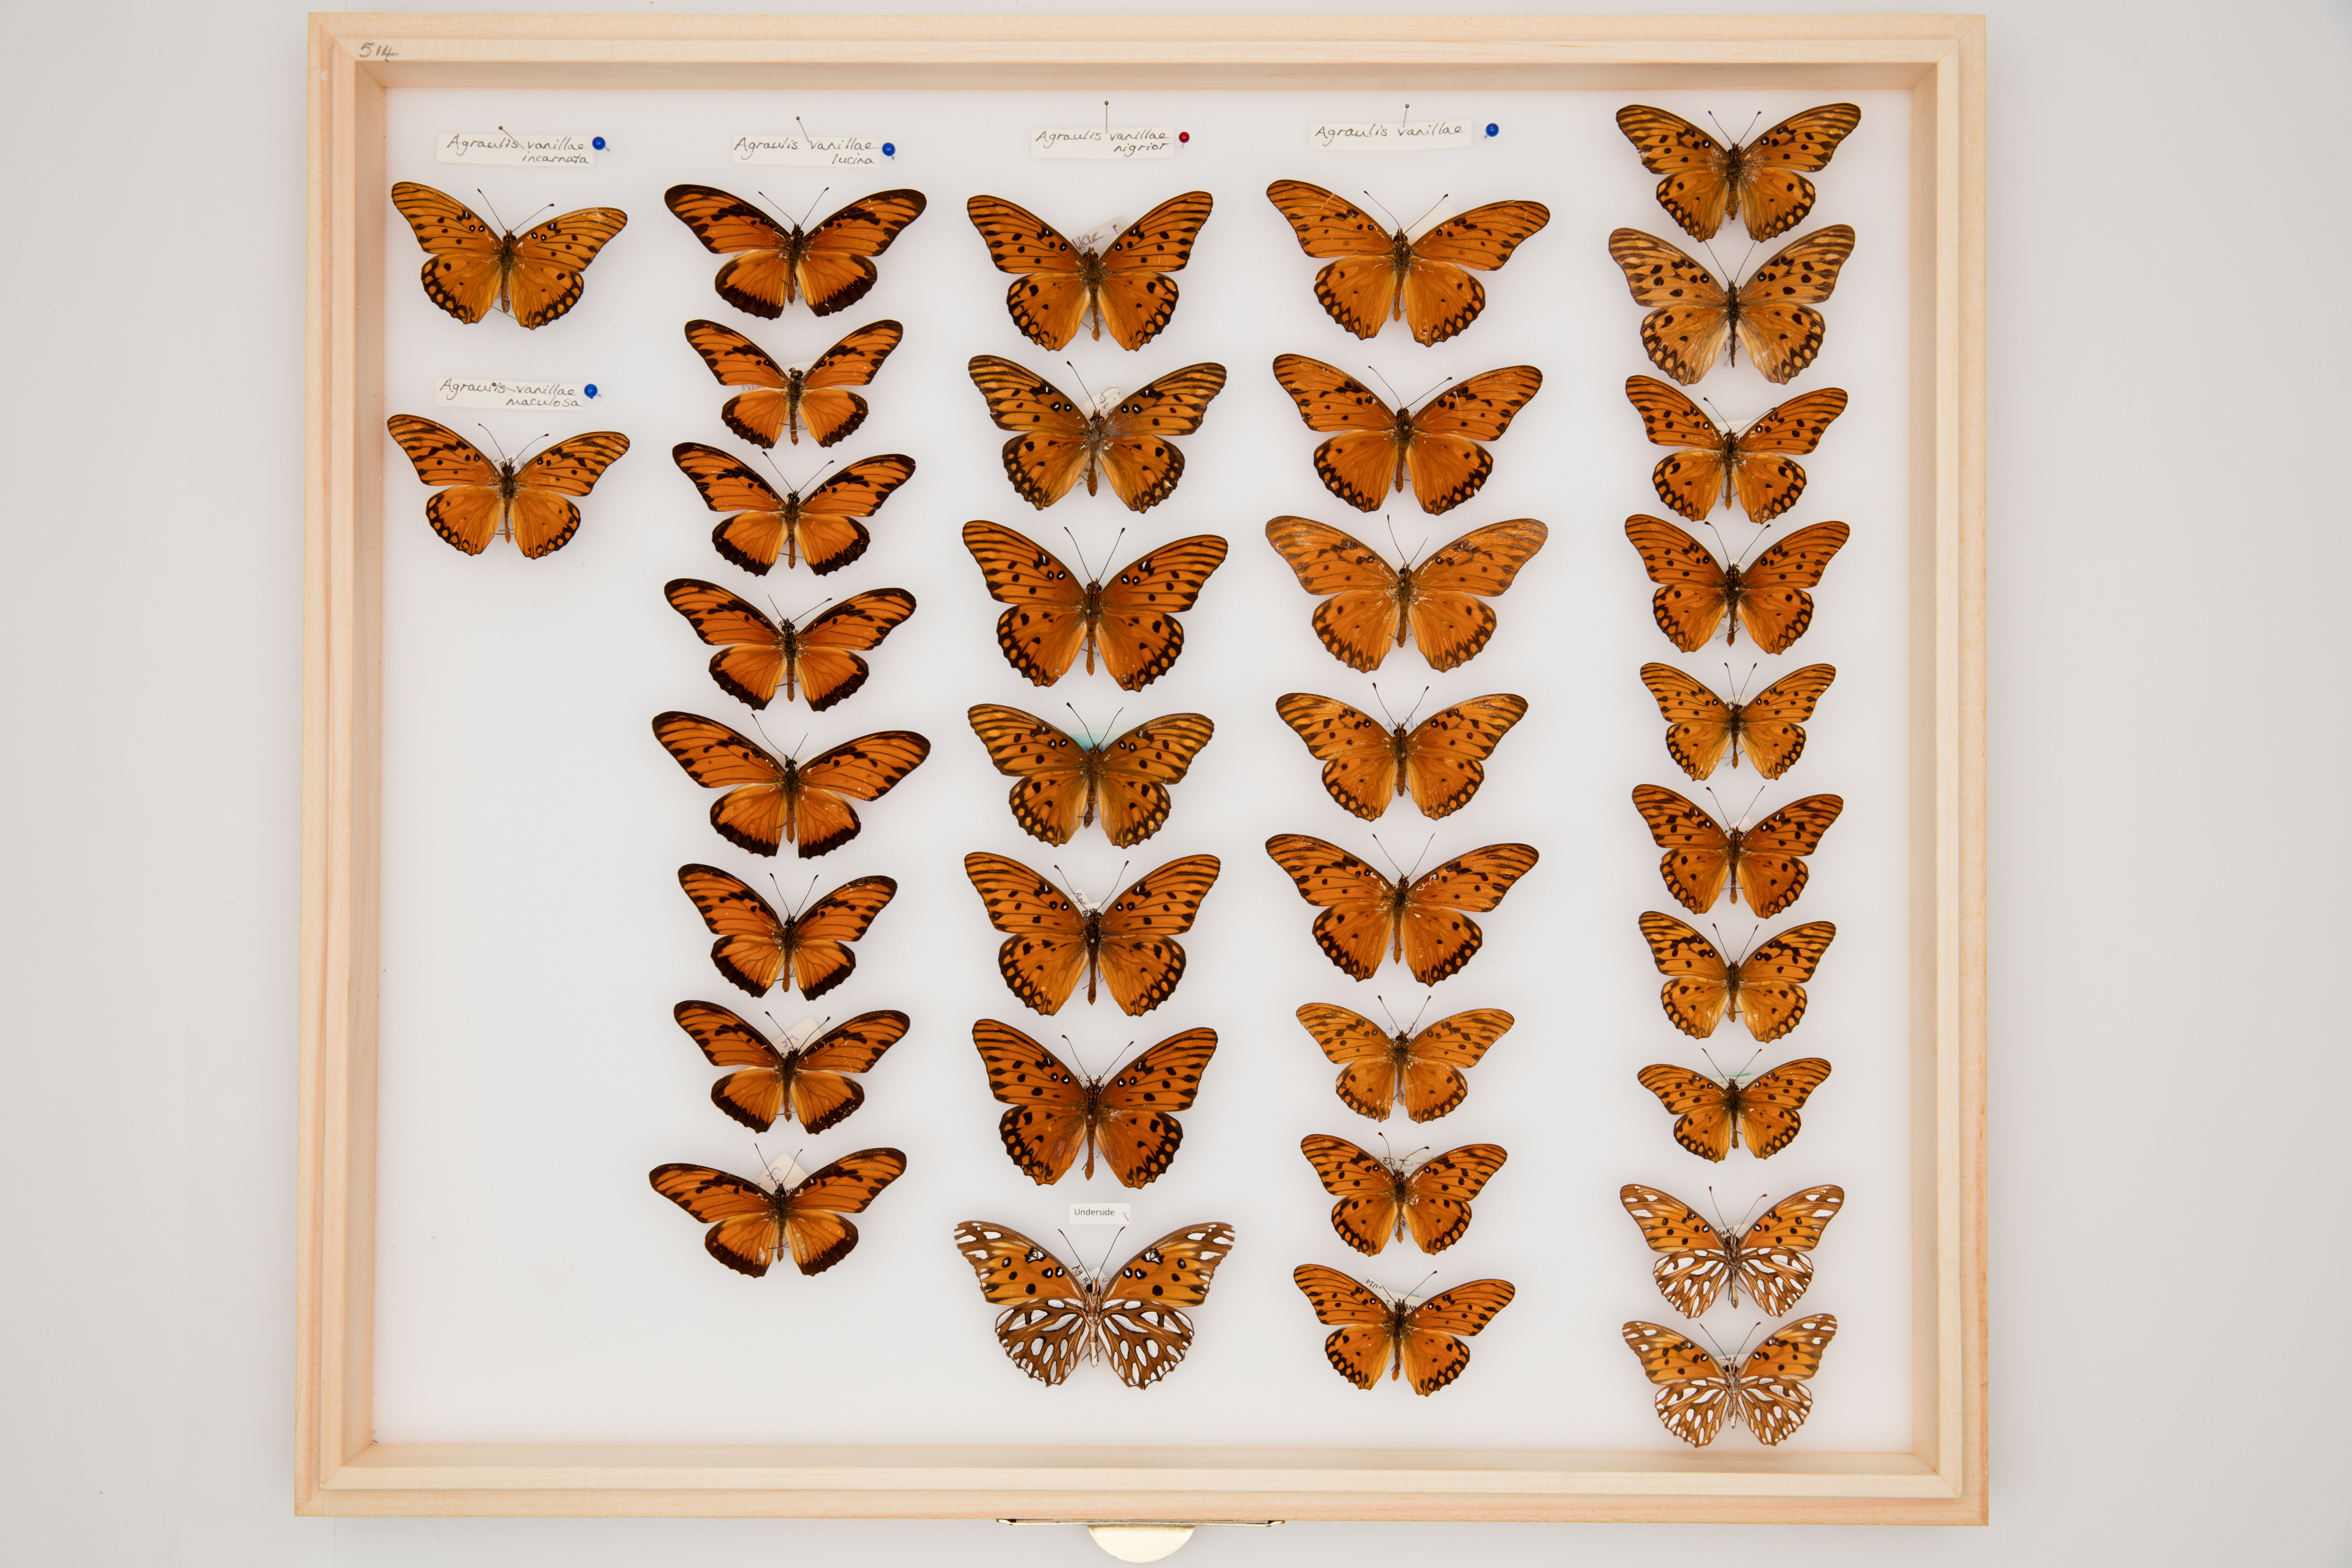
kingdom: Animalia
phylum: Arthropoda
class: Insecta
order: Lepidoptera
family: Nymphalidae
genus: Dione
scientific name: Dione vanillae
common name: Gulf fritillary
